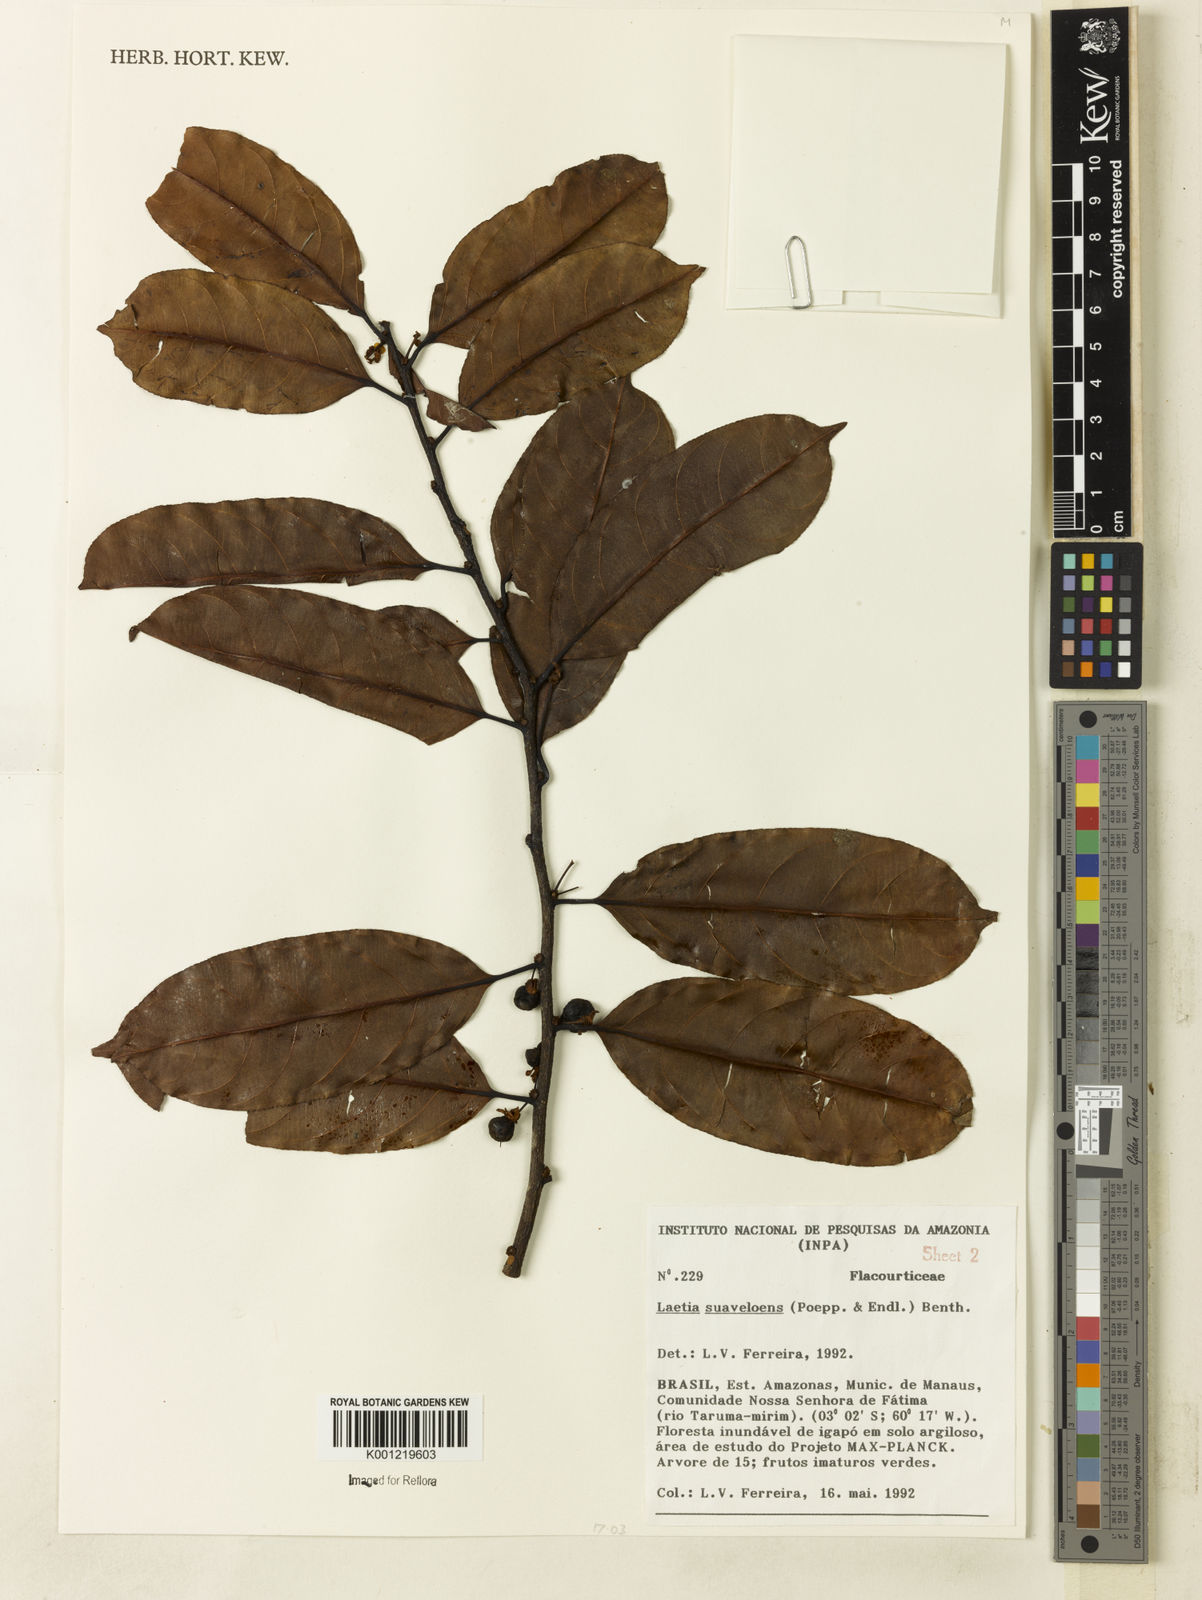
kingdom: Plantae
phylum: Tracheophyta
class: Magnoliopsida
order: Malpighiales
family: Salicaceae
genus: Casearia
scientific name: Casearia suaveolens
